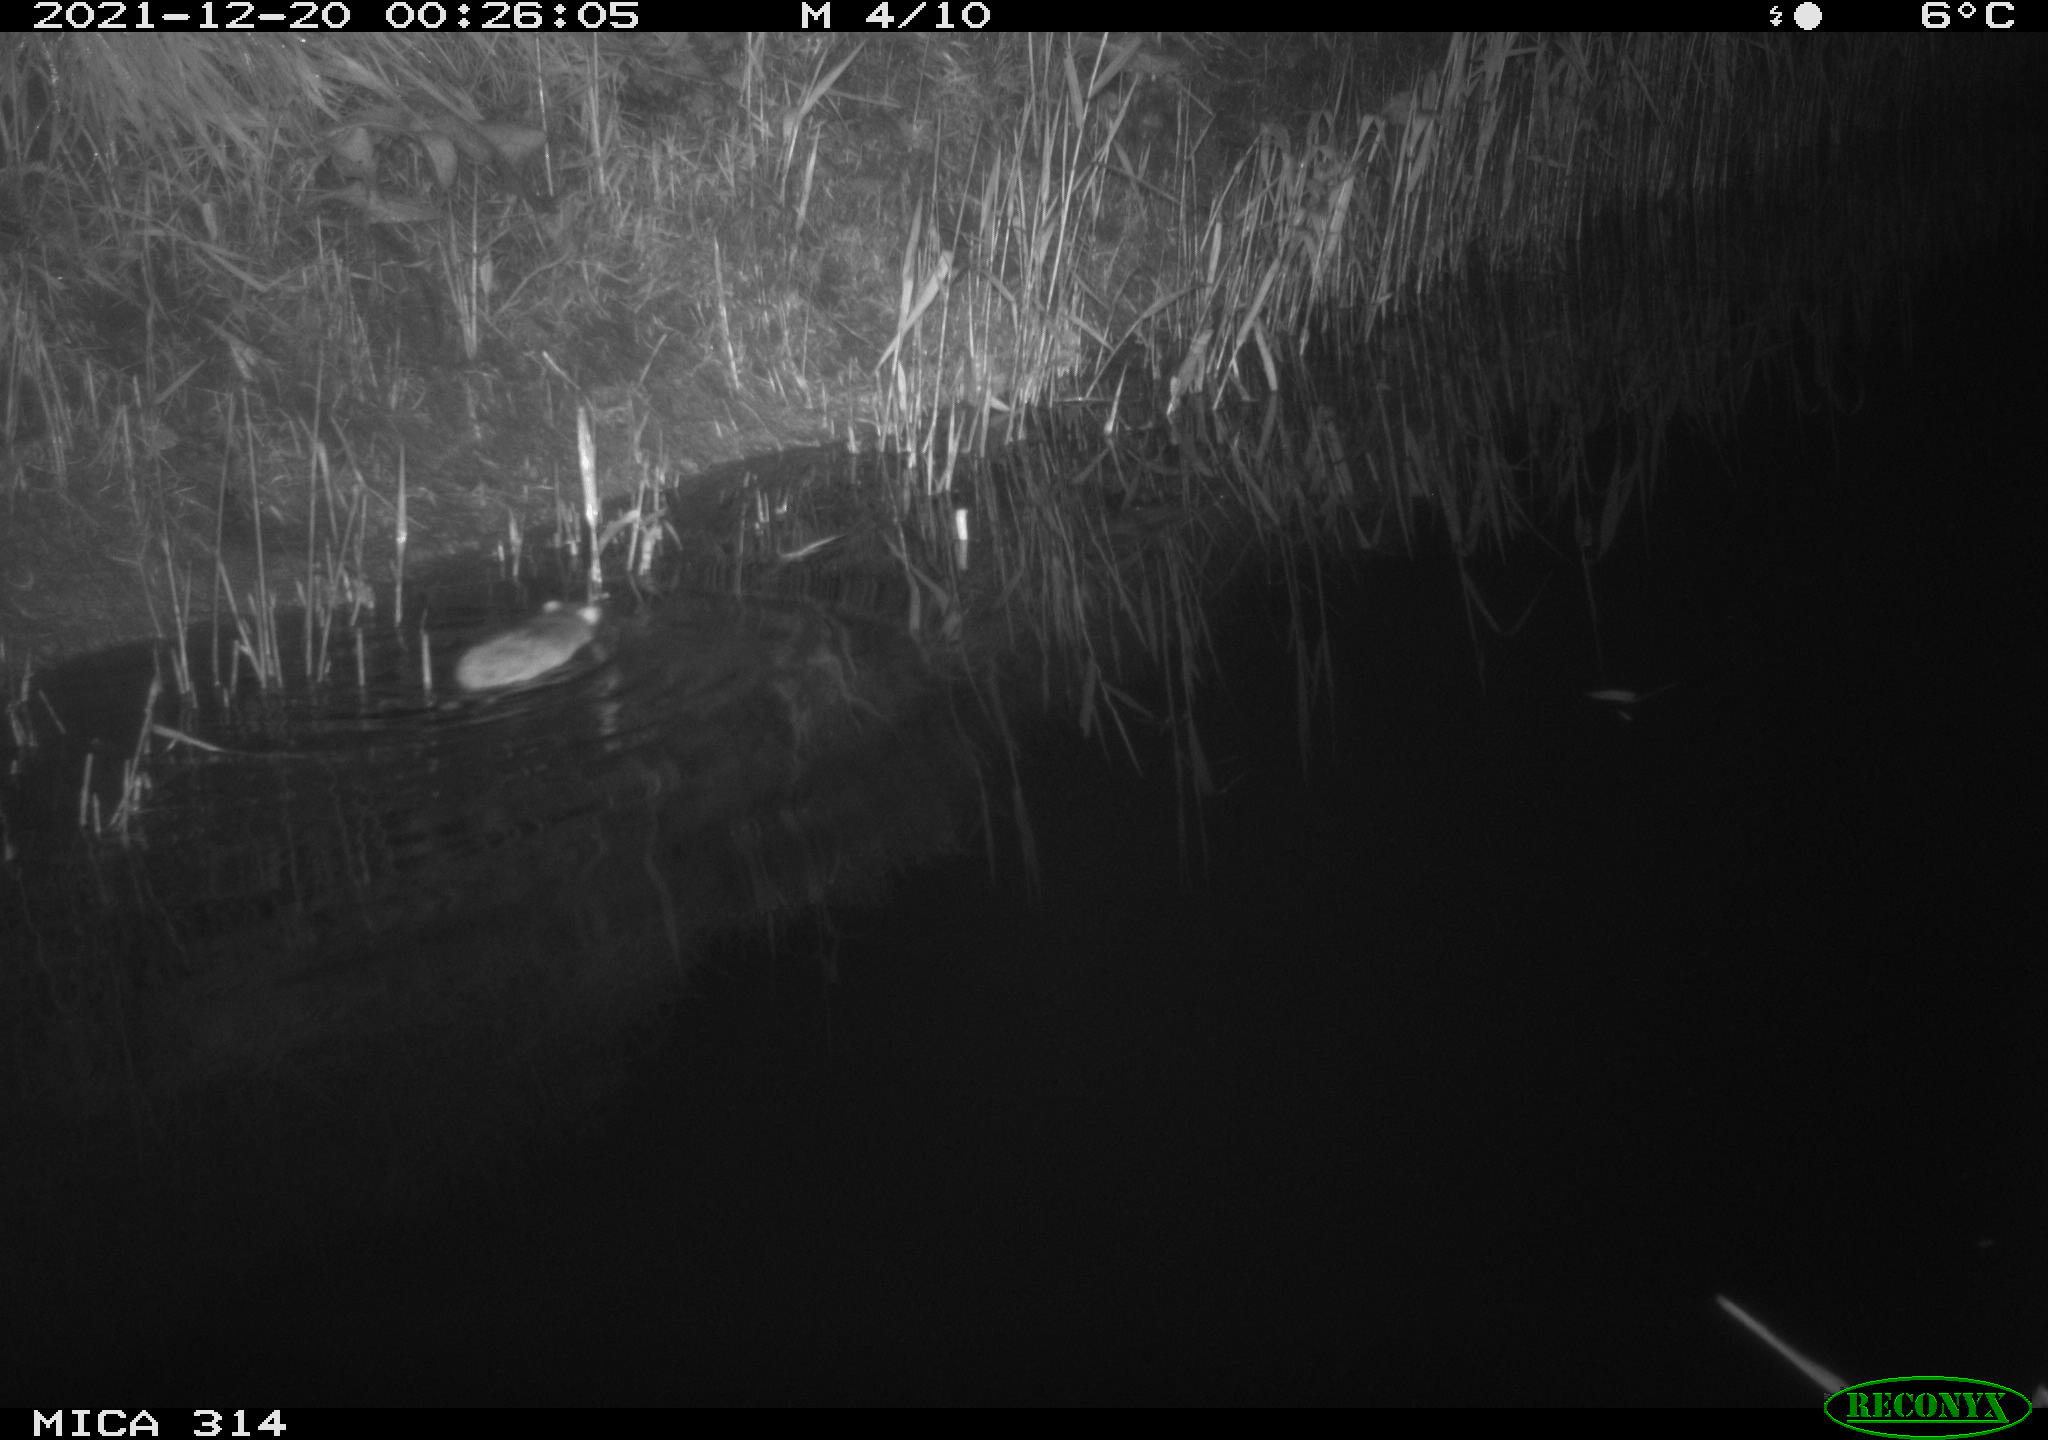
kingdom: Animalia
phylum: Chordata
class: Mammalia
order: Rodentia
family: Muridae
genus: Rattus
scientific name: Rattus norvegicus
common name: Brown rat
